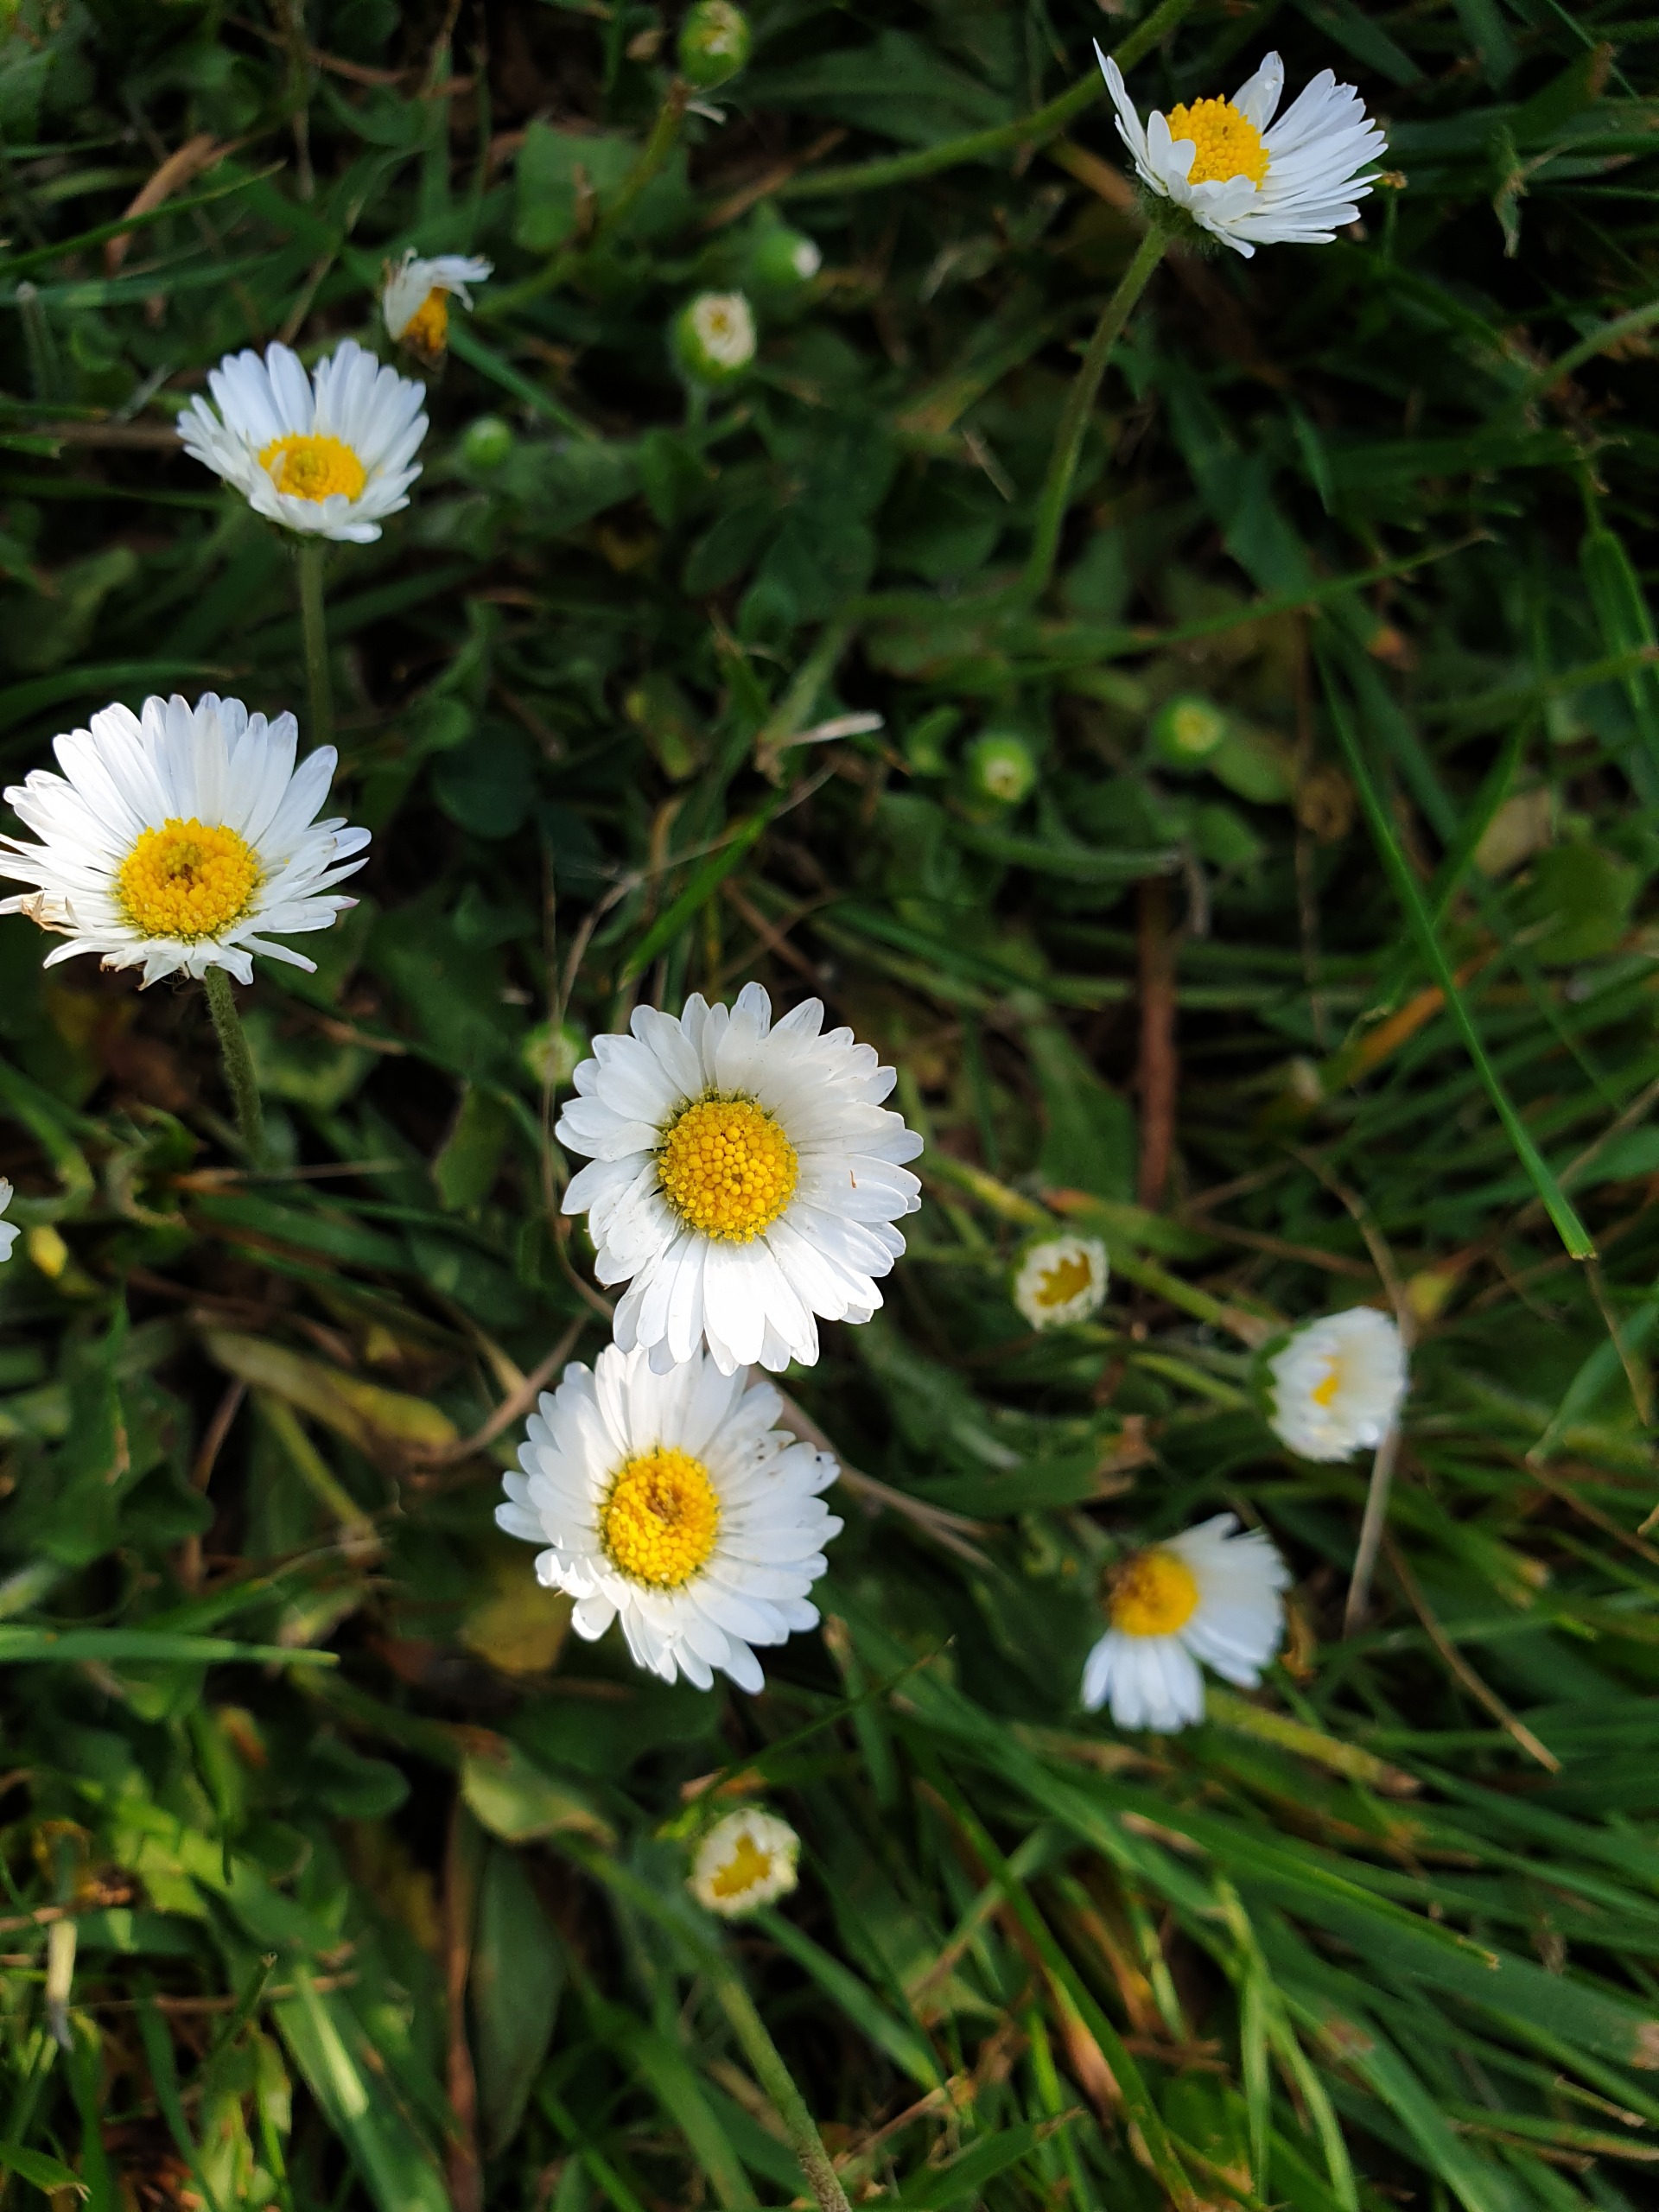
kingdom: Plantae
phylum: Tracheophyta
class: Magnoliopsida
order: Asterales
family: Asteraceae
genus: Bellis
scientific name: Bellis perennis
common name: Tusindfryd
